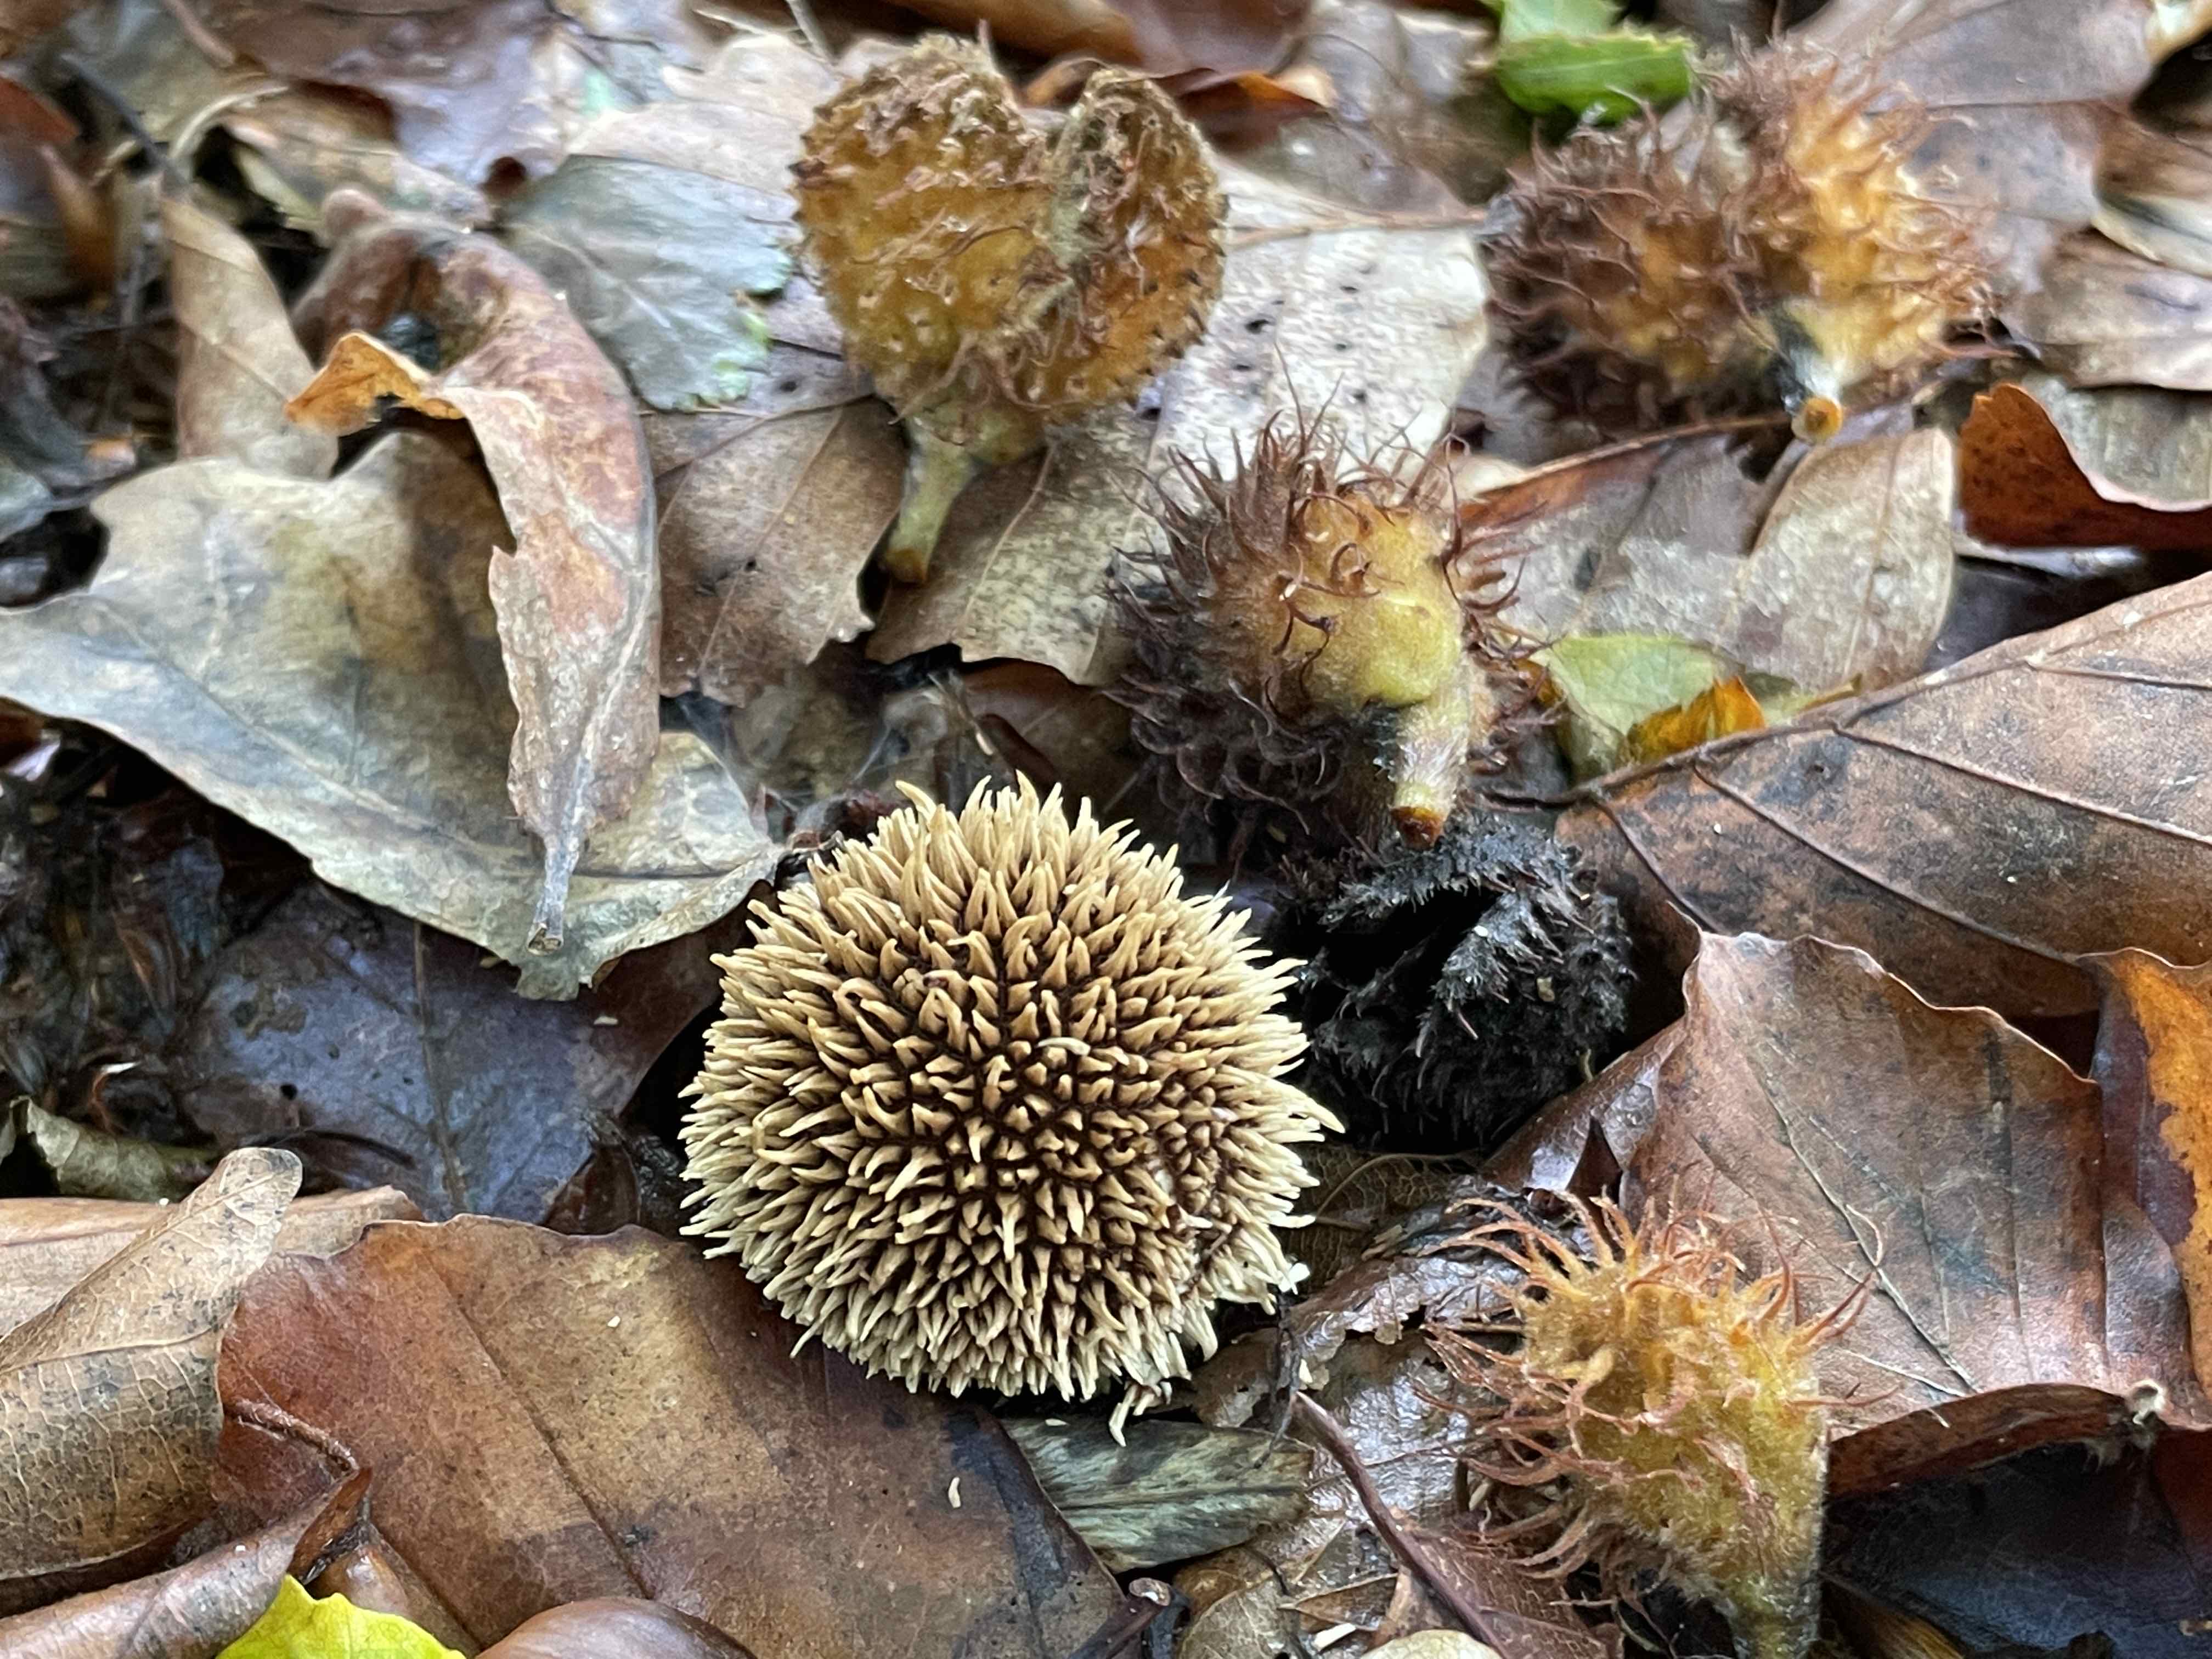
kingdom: Fungi
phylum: Basidiomycota
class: Agaricomycetes
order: Agaricales
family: Lycoperdaceae
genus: Lycoperdon
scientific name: Lycoperdon echinatum
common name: pindsvine-støvbold
